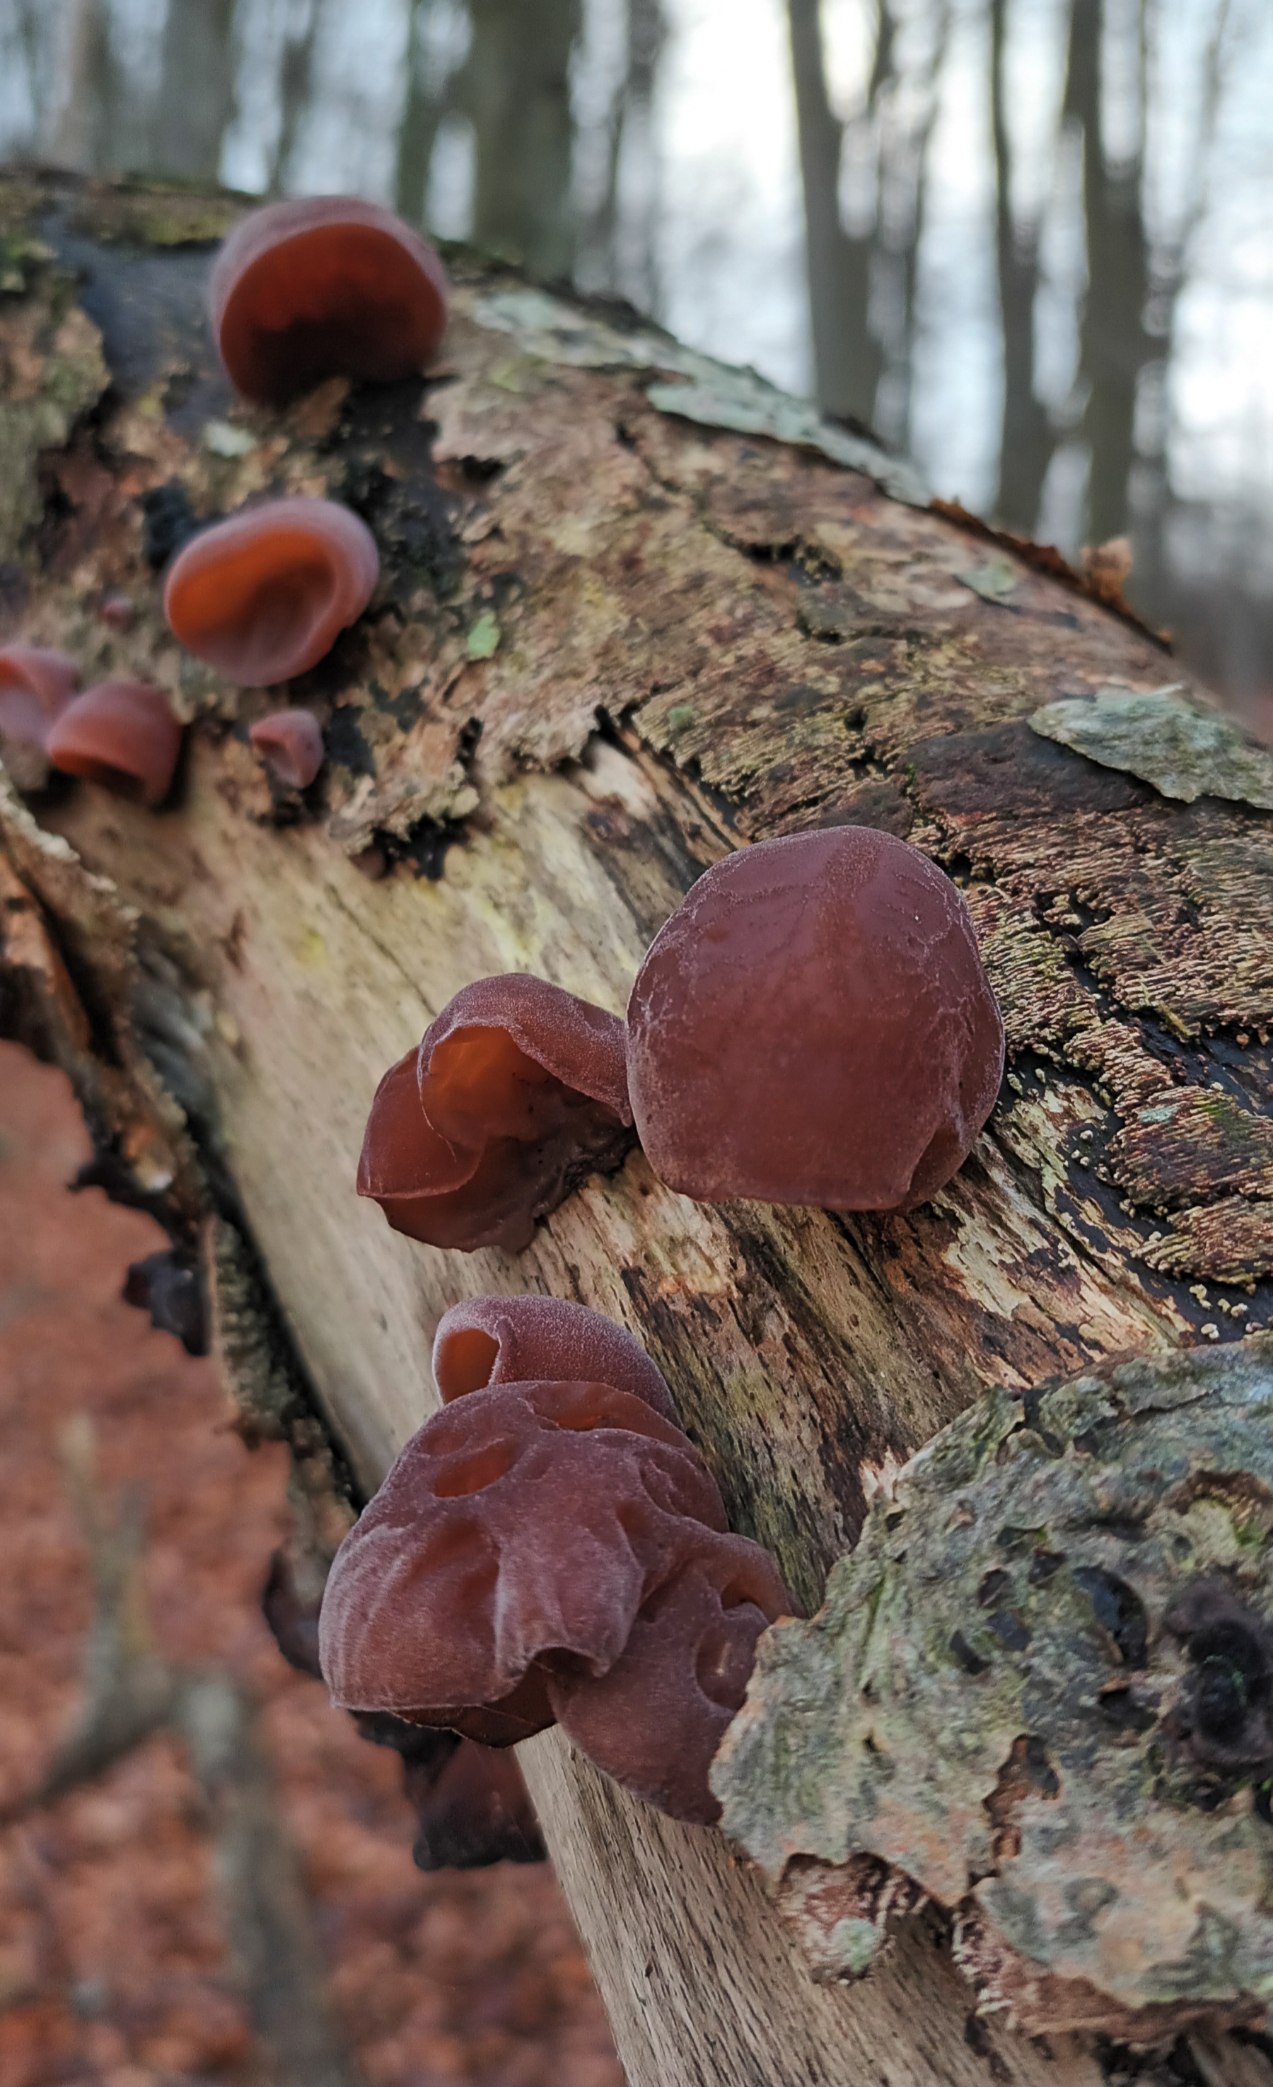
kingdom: Fungi
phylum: Basidiomycota
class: Agaricomycetes
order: Auriculariales
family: Auriculariaceae
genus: Auricularia
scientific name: Auricularia auricula-judae
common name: Almindelig judasøre
